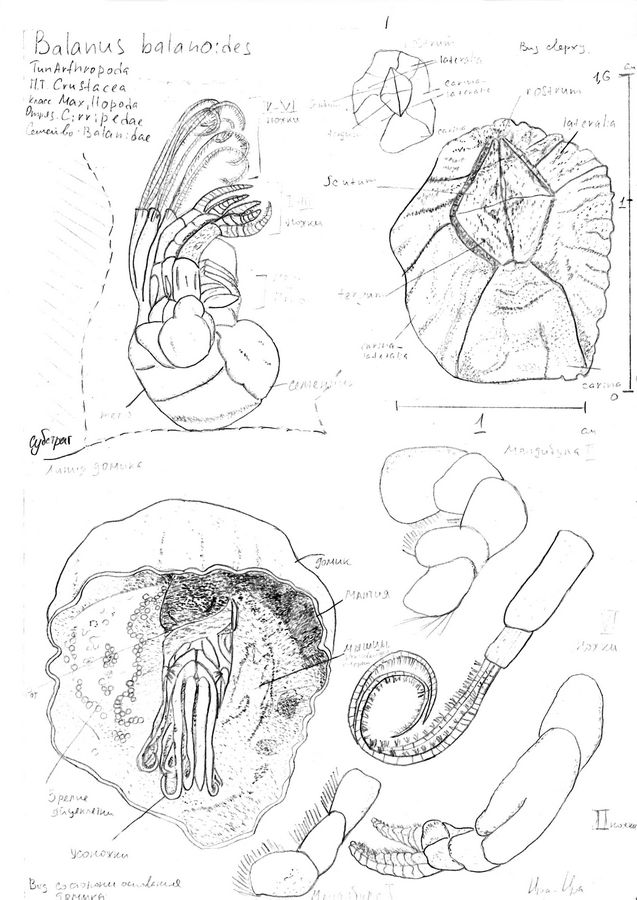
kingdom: Animalia
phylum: Arthropoda
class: Maxillopoda
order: Sessilia
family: Archaeobalanidae
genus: Semibalanus
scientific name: Semibalanus balanoides
